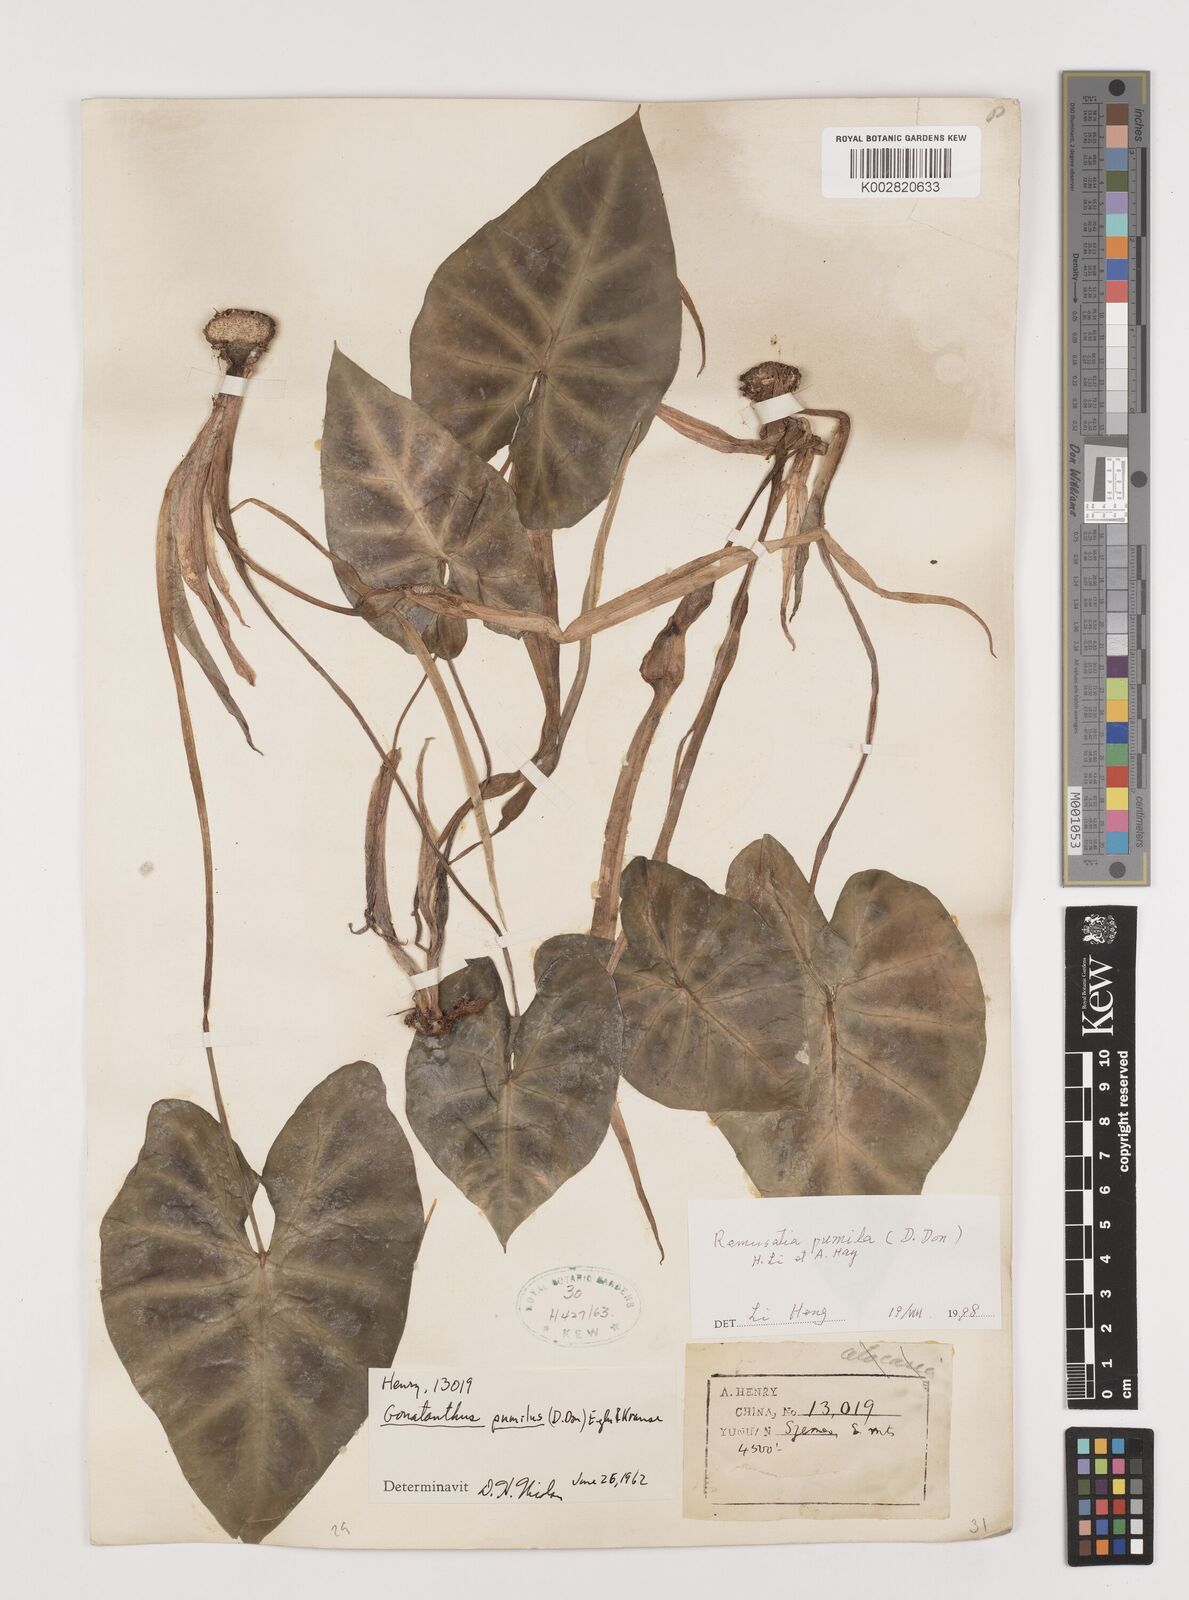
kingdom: Plantae
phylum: Tracheophyta
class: Liliopsida
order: Alismatales
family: Araceae
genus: Remusatia
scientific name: Remusatia pumila
